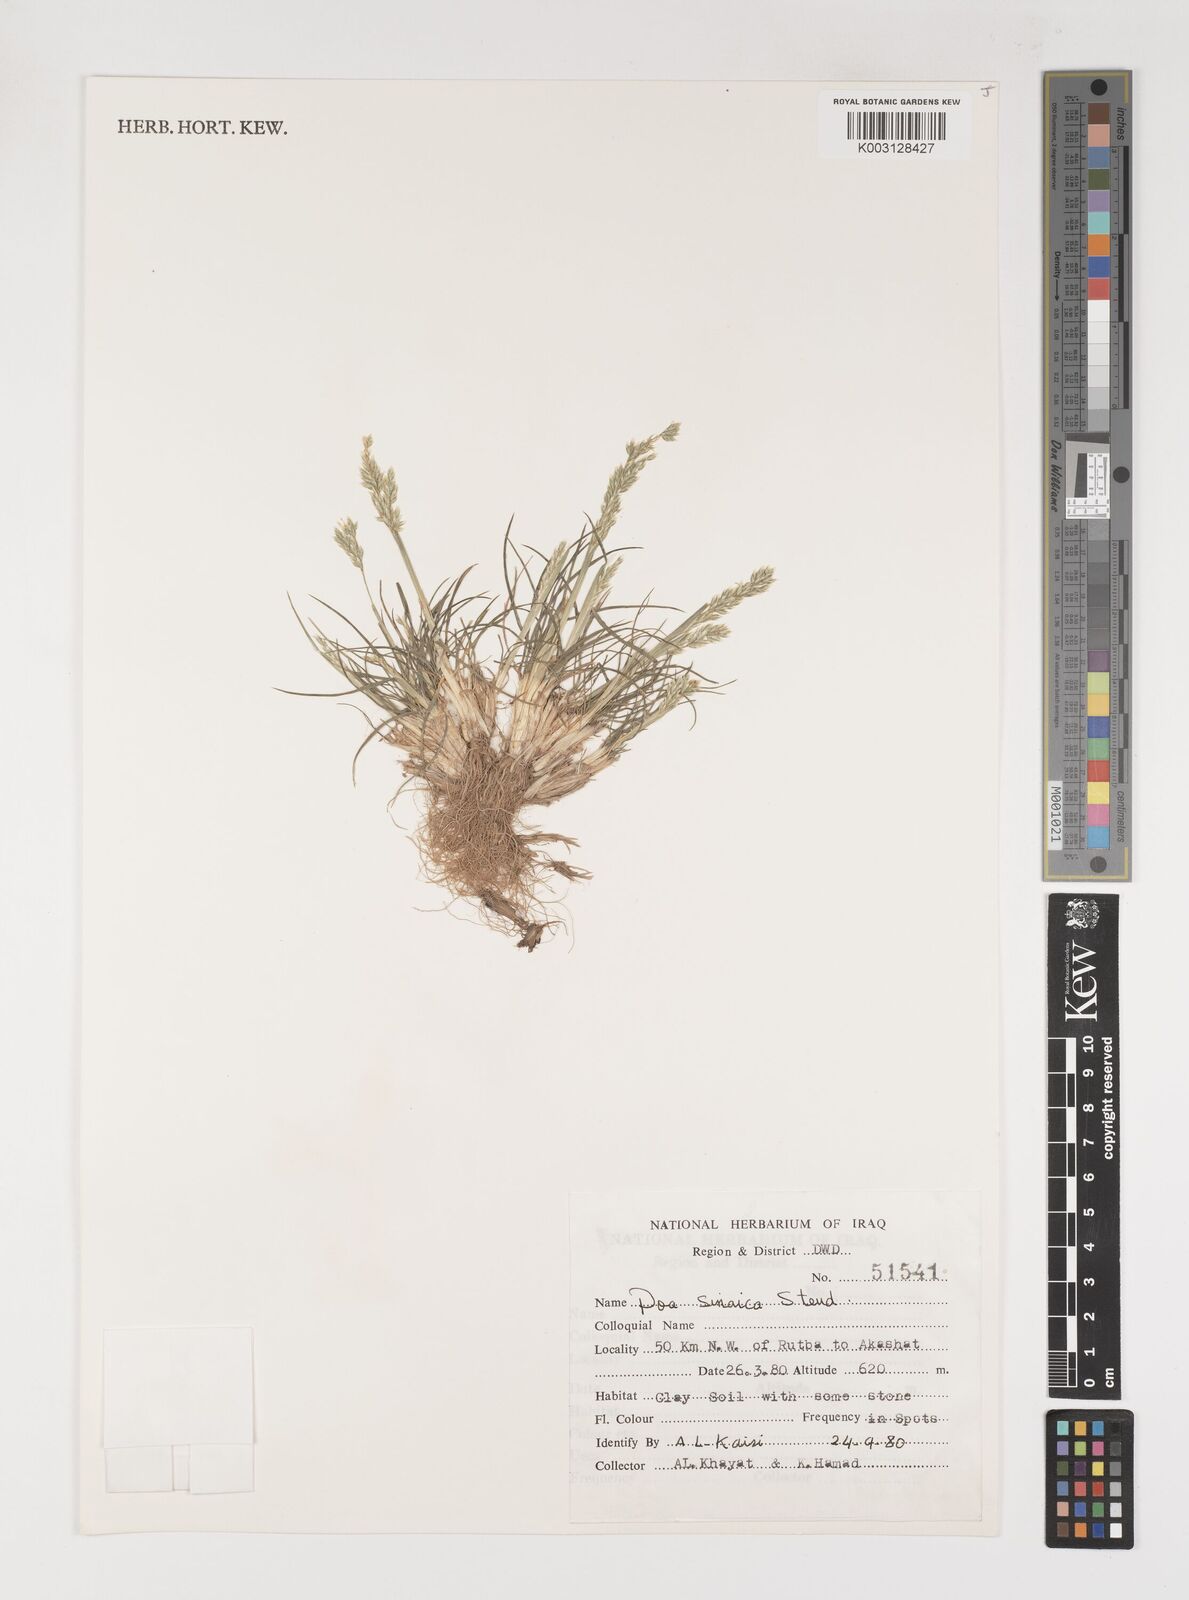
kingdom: Plantae
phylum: Tracheophyta
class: Liliopsida
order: Poales
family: Poaceae
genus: Poa
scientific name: Poa sinaica
